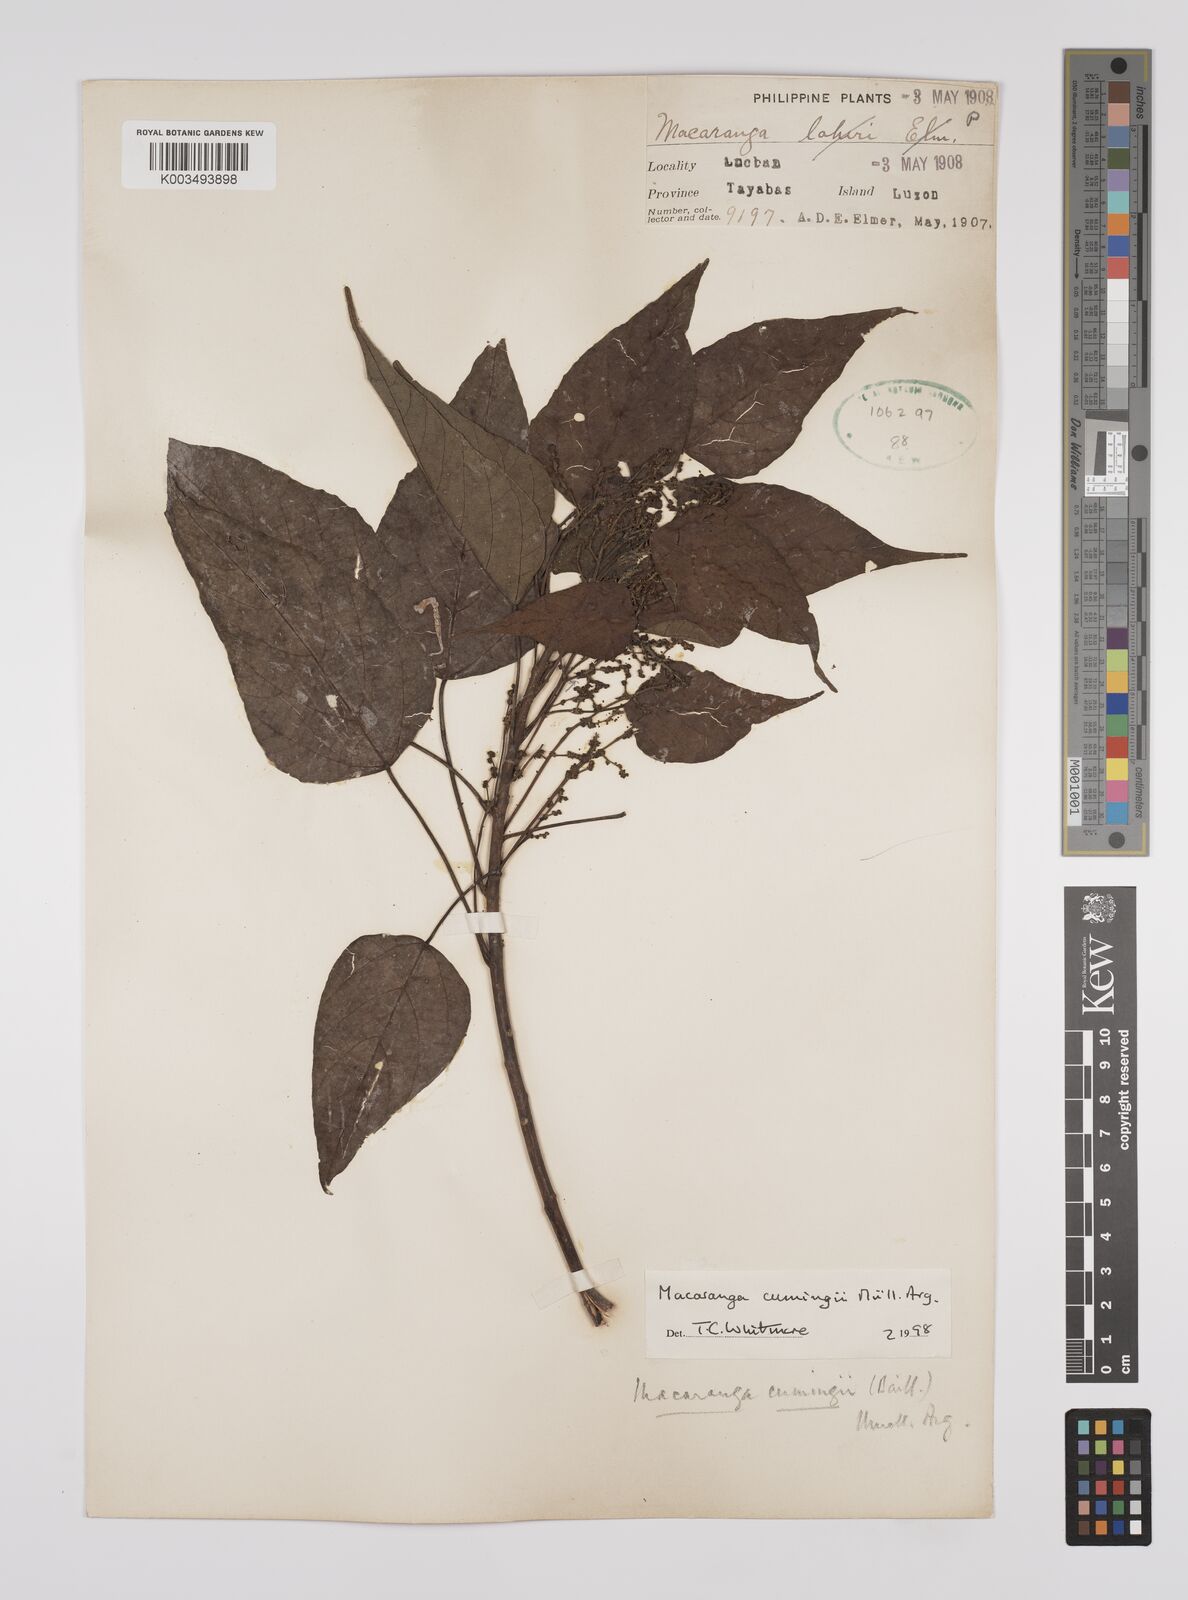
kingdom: Plantae
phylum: Tracheophyta
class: Magnoliopsida
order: Malpighiales
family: Euphorbiaceae
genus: Macaranga
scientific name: Macaranga cumingii
